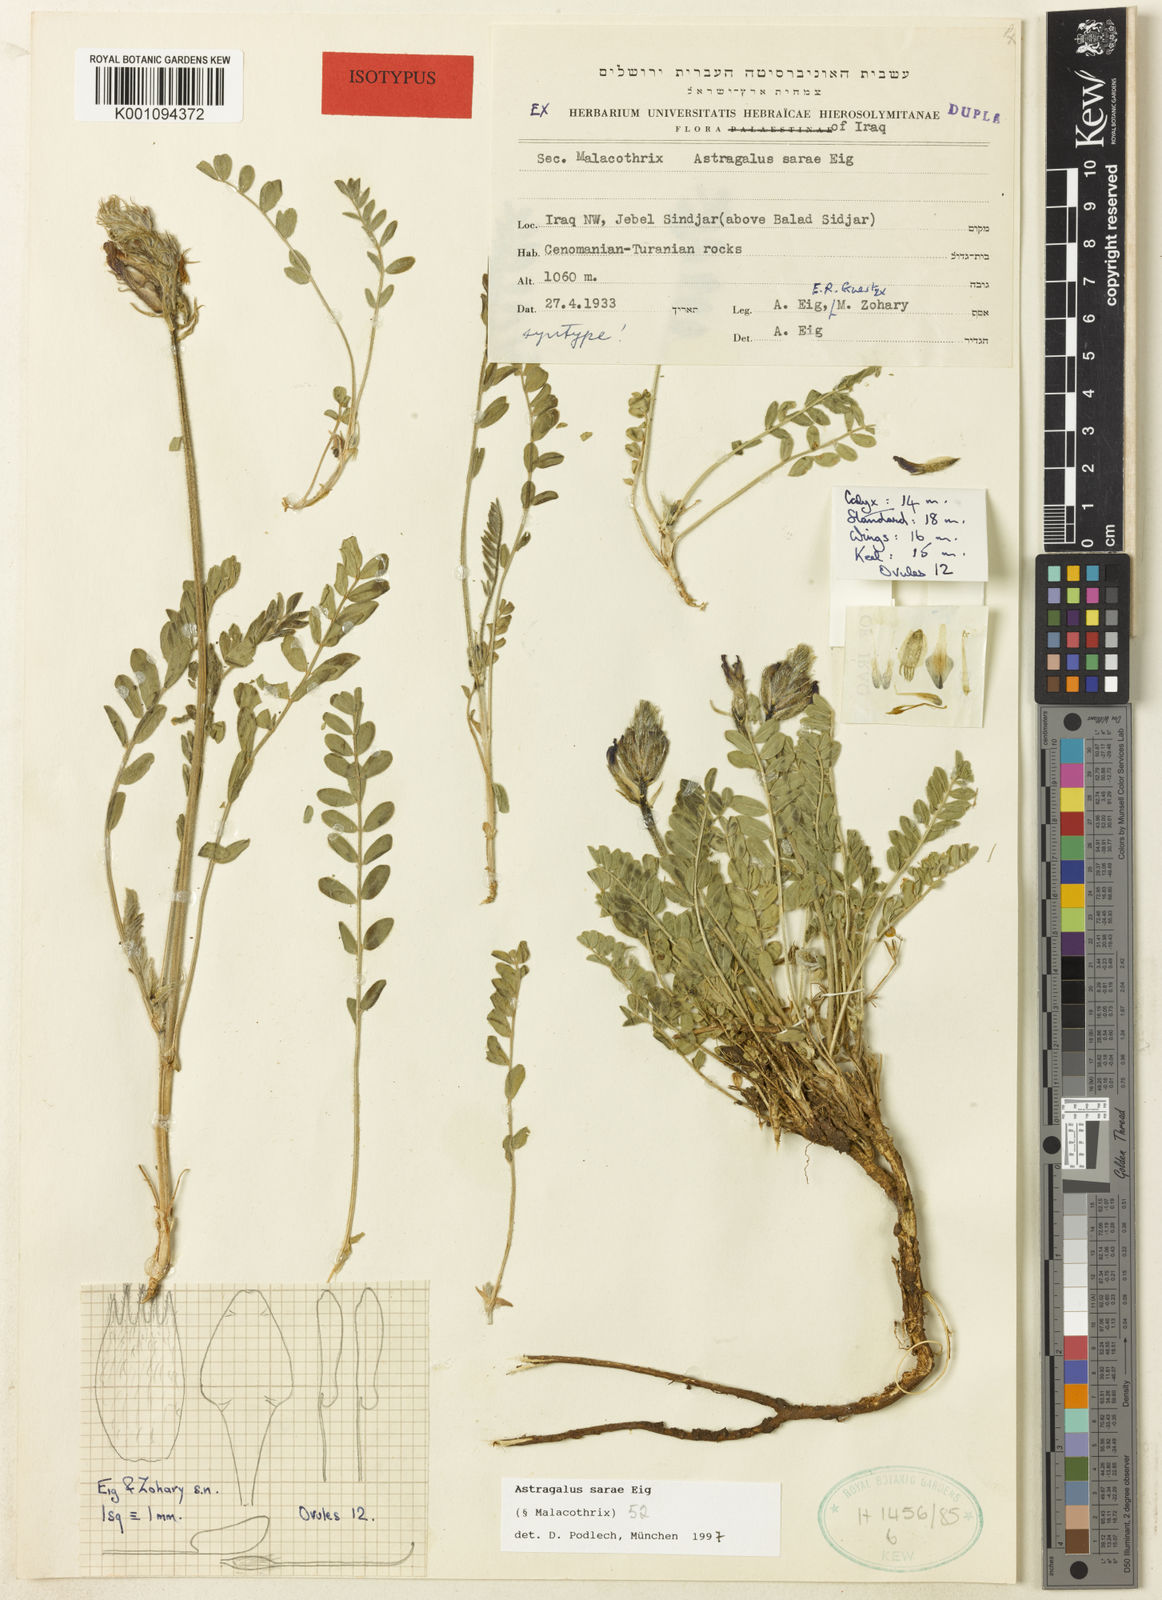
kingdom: Plantae
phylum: Tracheophyta
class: Magnoliopsida
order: Fabales
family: Fabaceae
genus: Astragalus
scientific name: Astragalus
